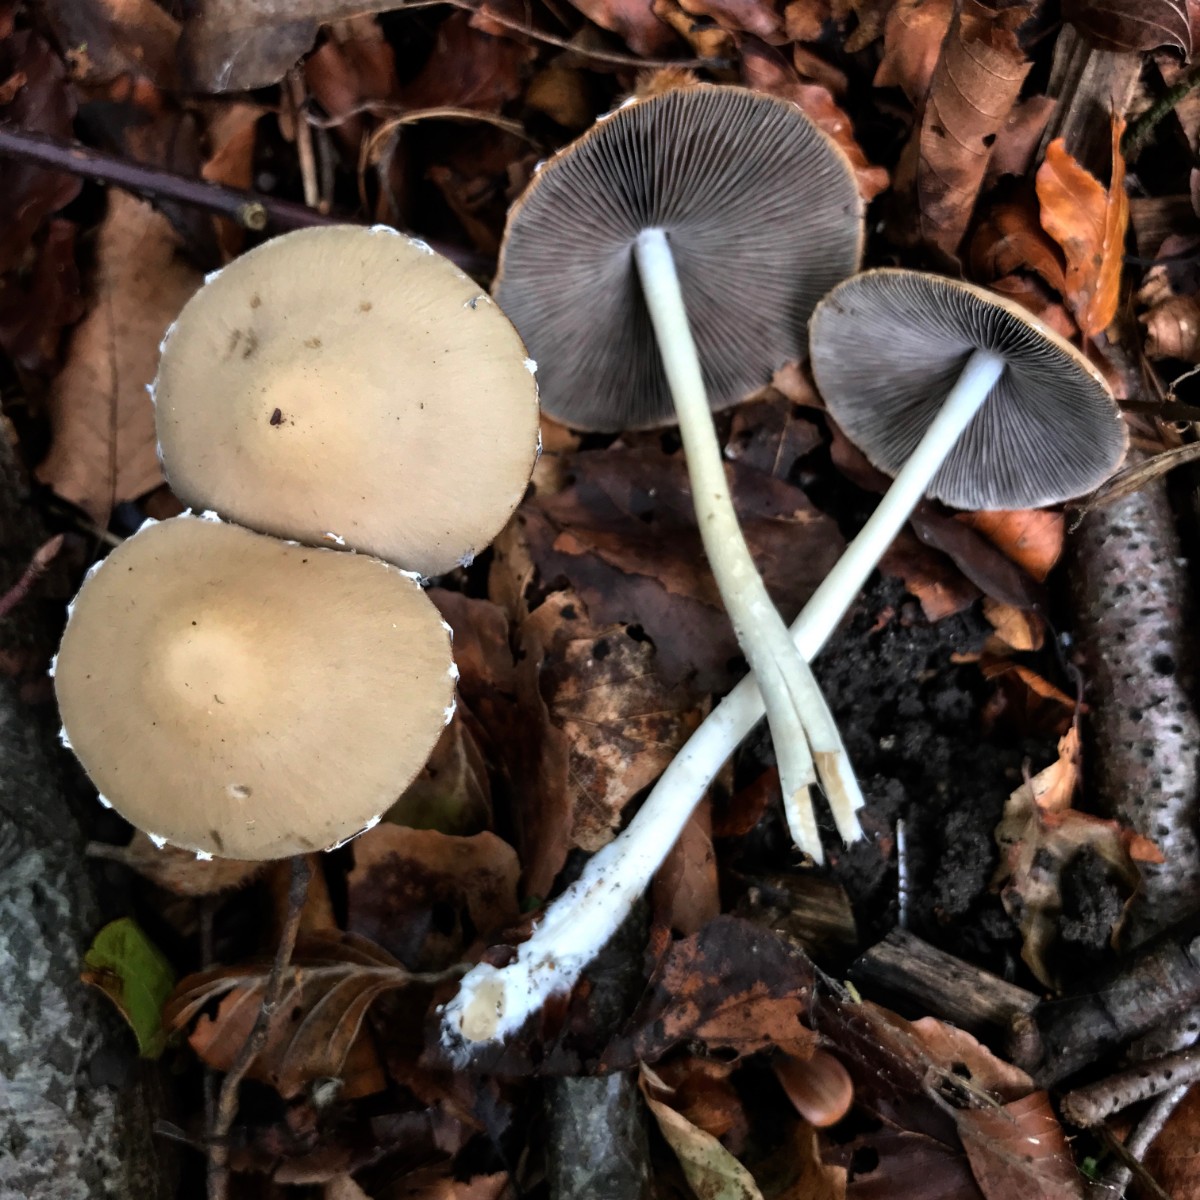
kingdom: Fungi
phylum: Basidiomycota
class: Agaricomycetes
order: Agaricales
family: Psathyrellaceae
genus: Candolleomyces
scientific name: Candolleomyces candolleanus
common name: Candolles mørkhat
